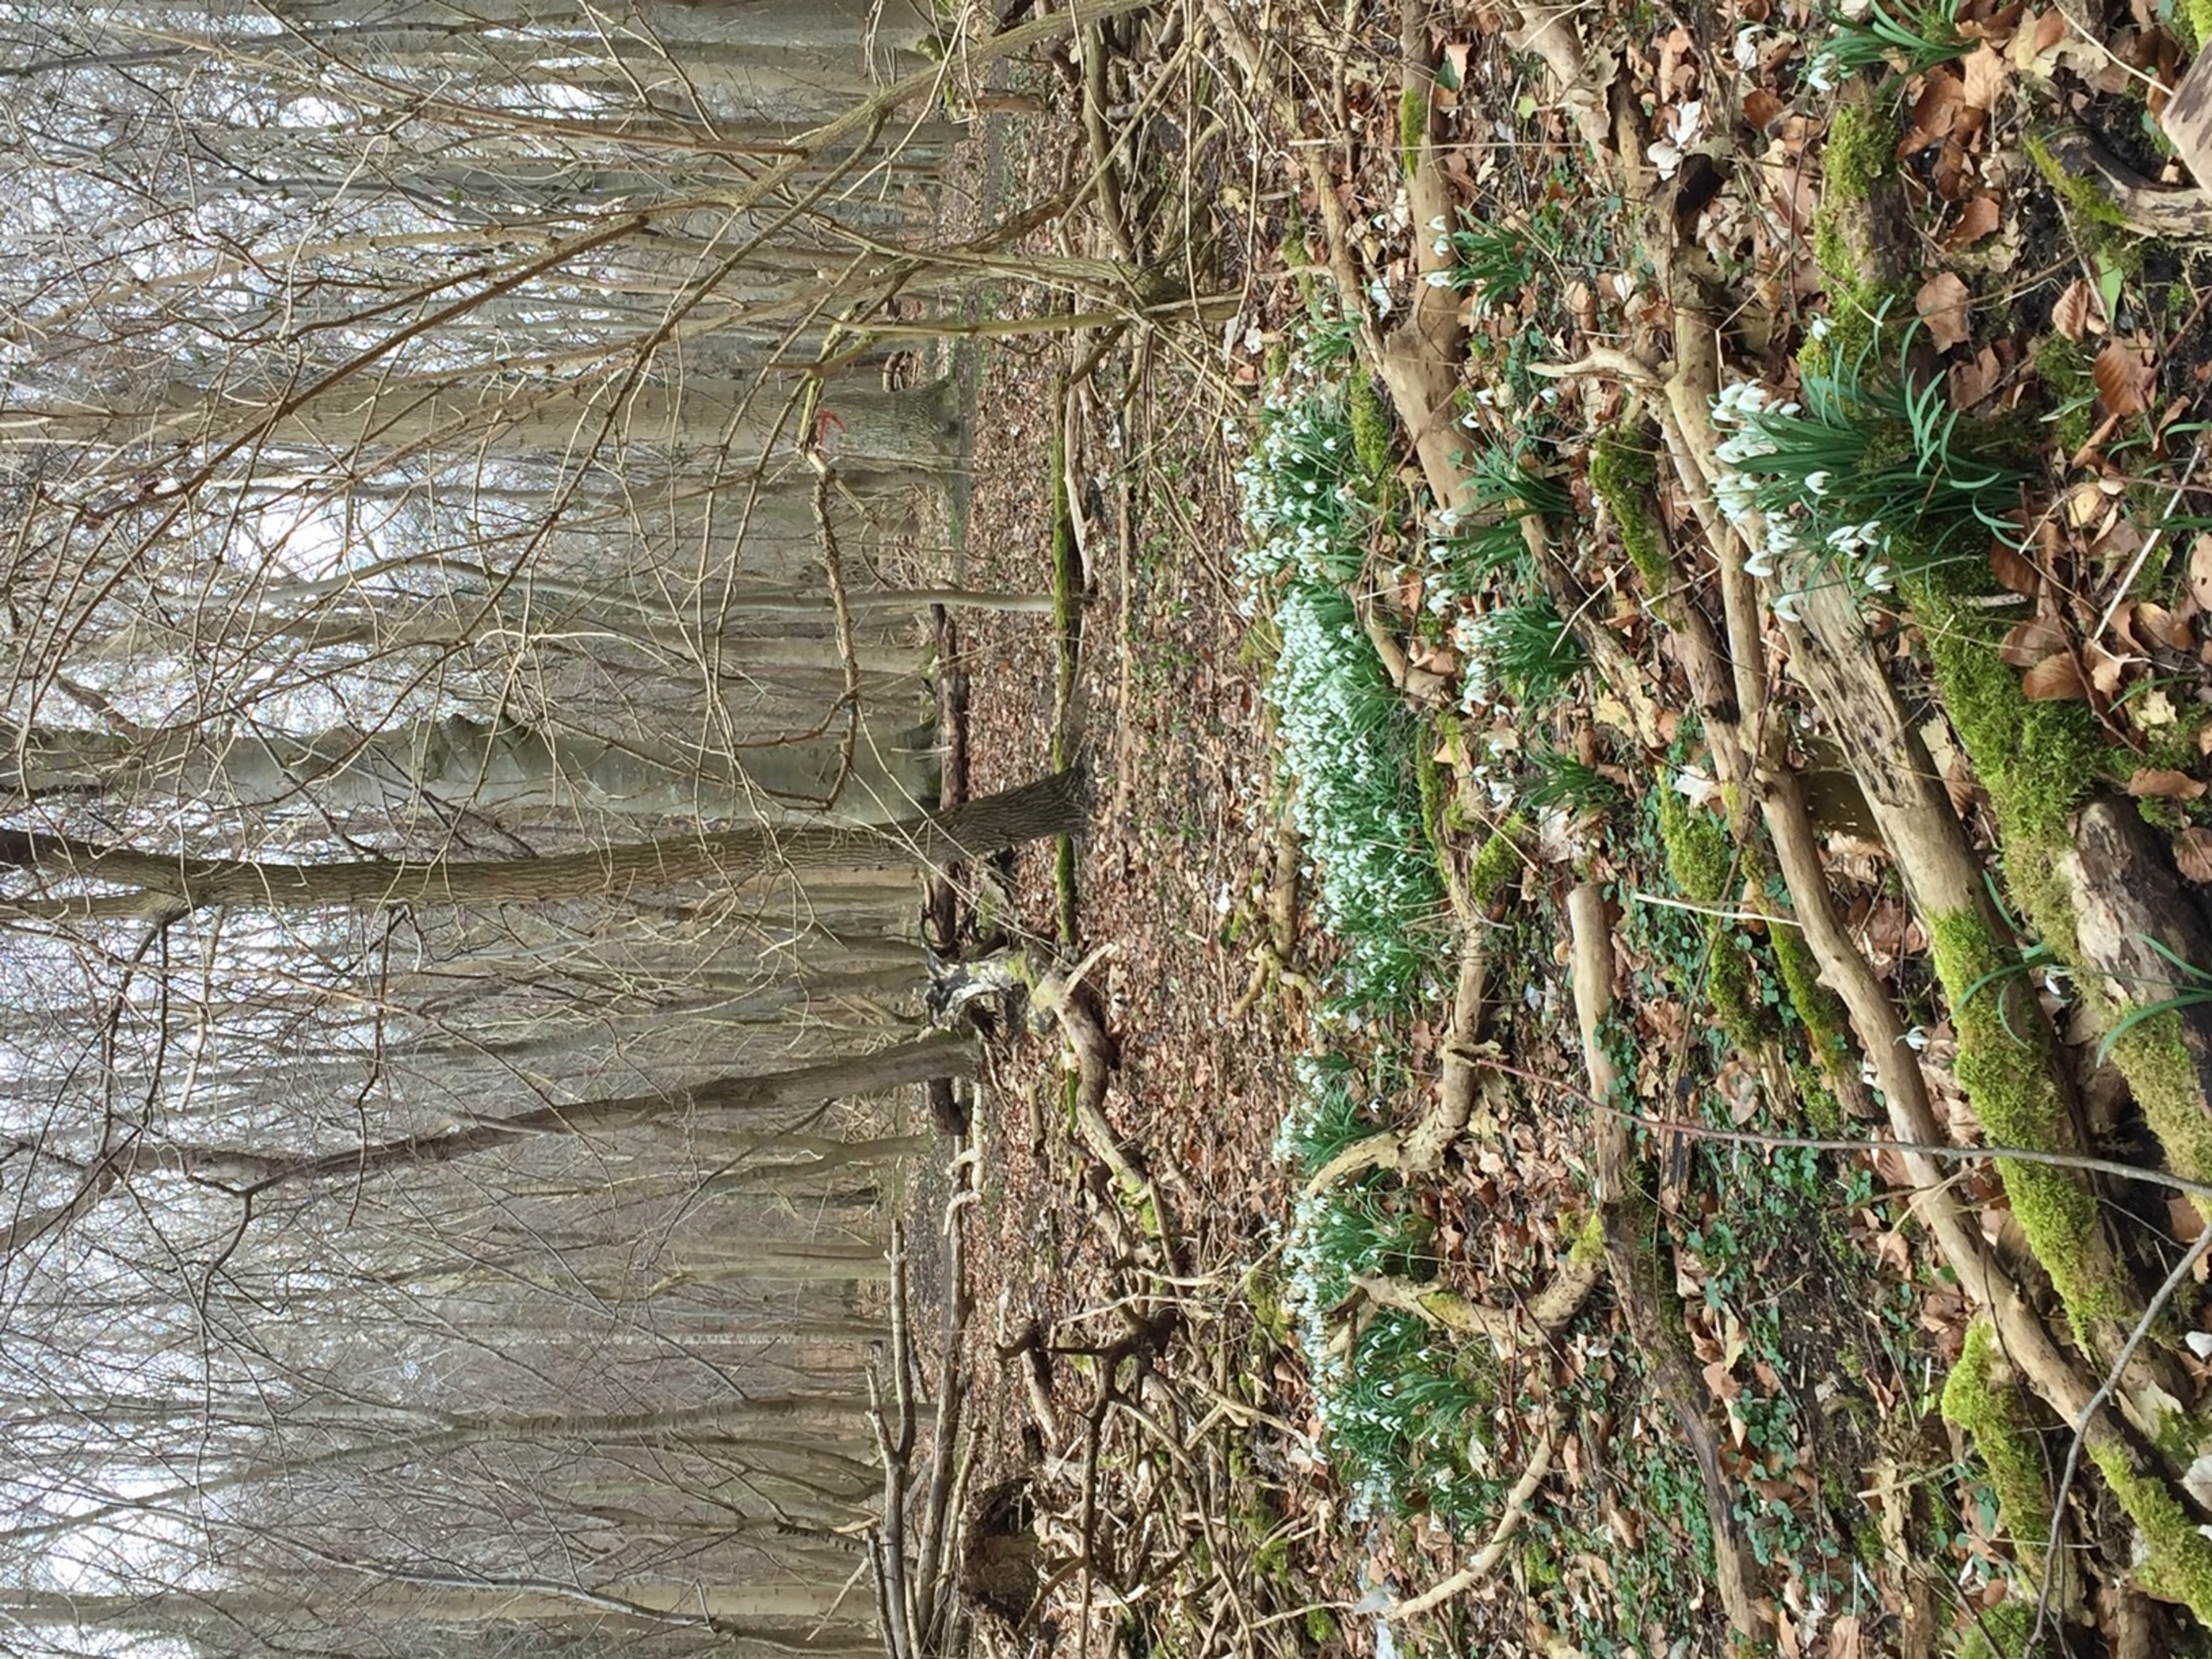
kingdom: Plantae
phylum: Tracheophyta
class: Liliopsida
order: Asparagales
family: Amaryllidaceae
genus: Galanthus
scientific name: Galanthus nivalis
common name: Vintergæk
